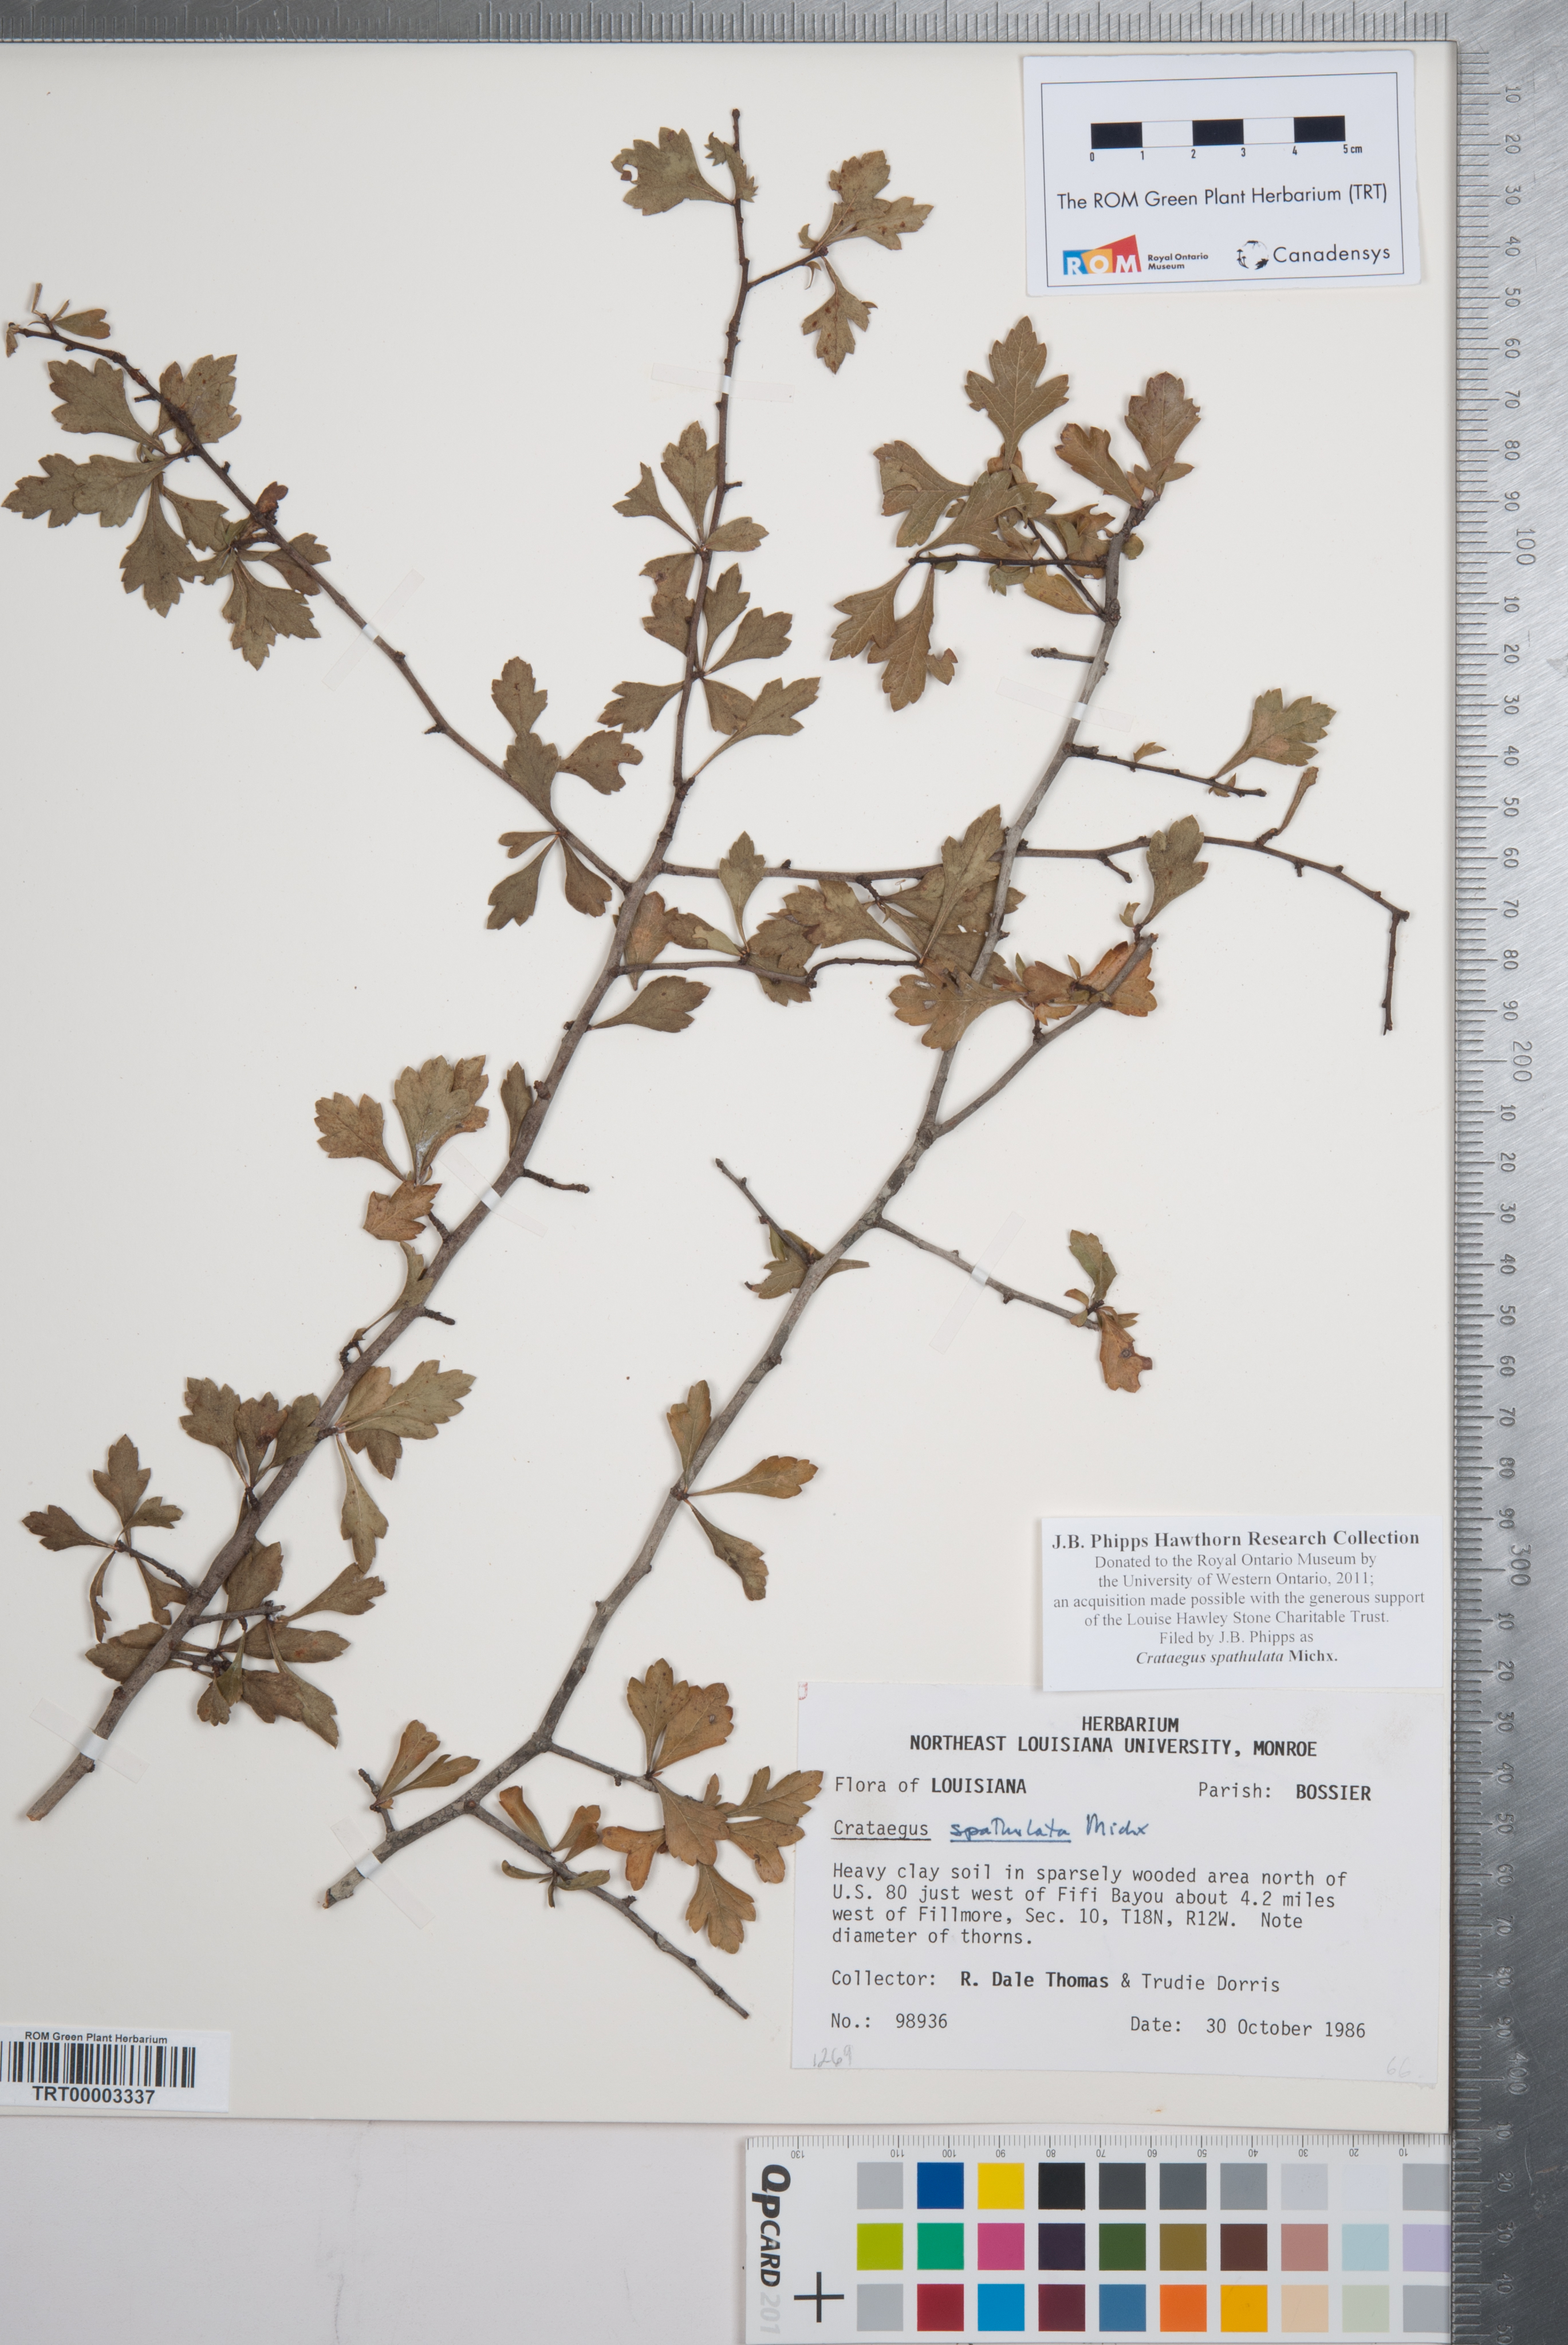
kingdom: Plantae
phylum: Tracheophyta
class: Magnoliopsida
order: Rosales
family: Rosaceae
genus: Crataegus
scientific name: Crataegus spathulata
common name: Littlehip hawthorn
